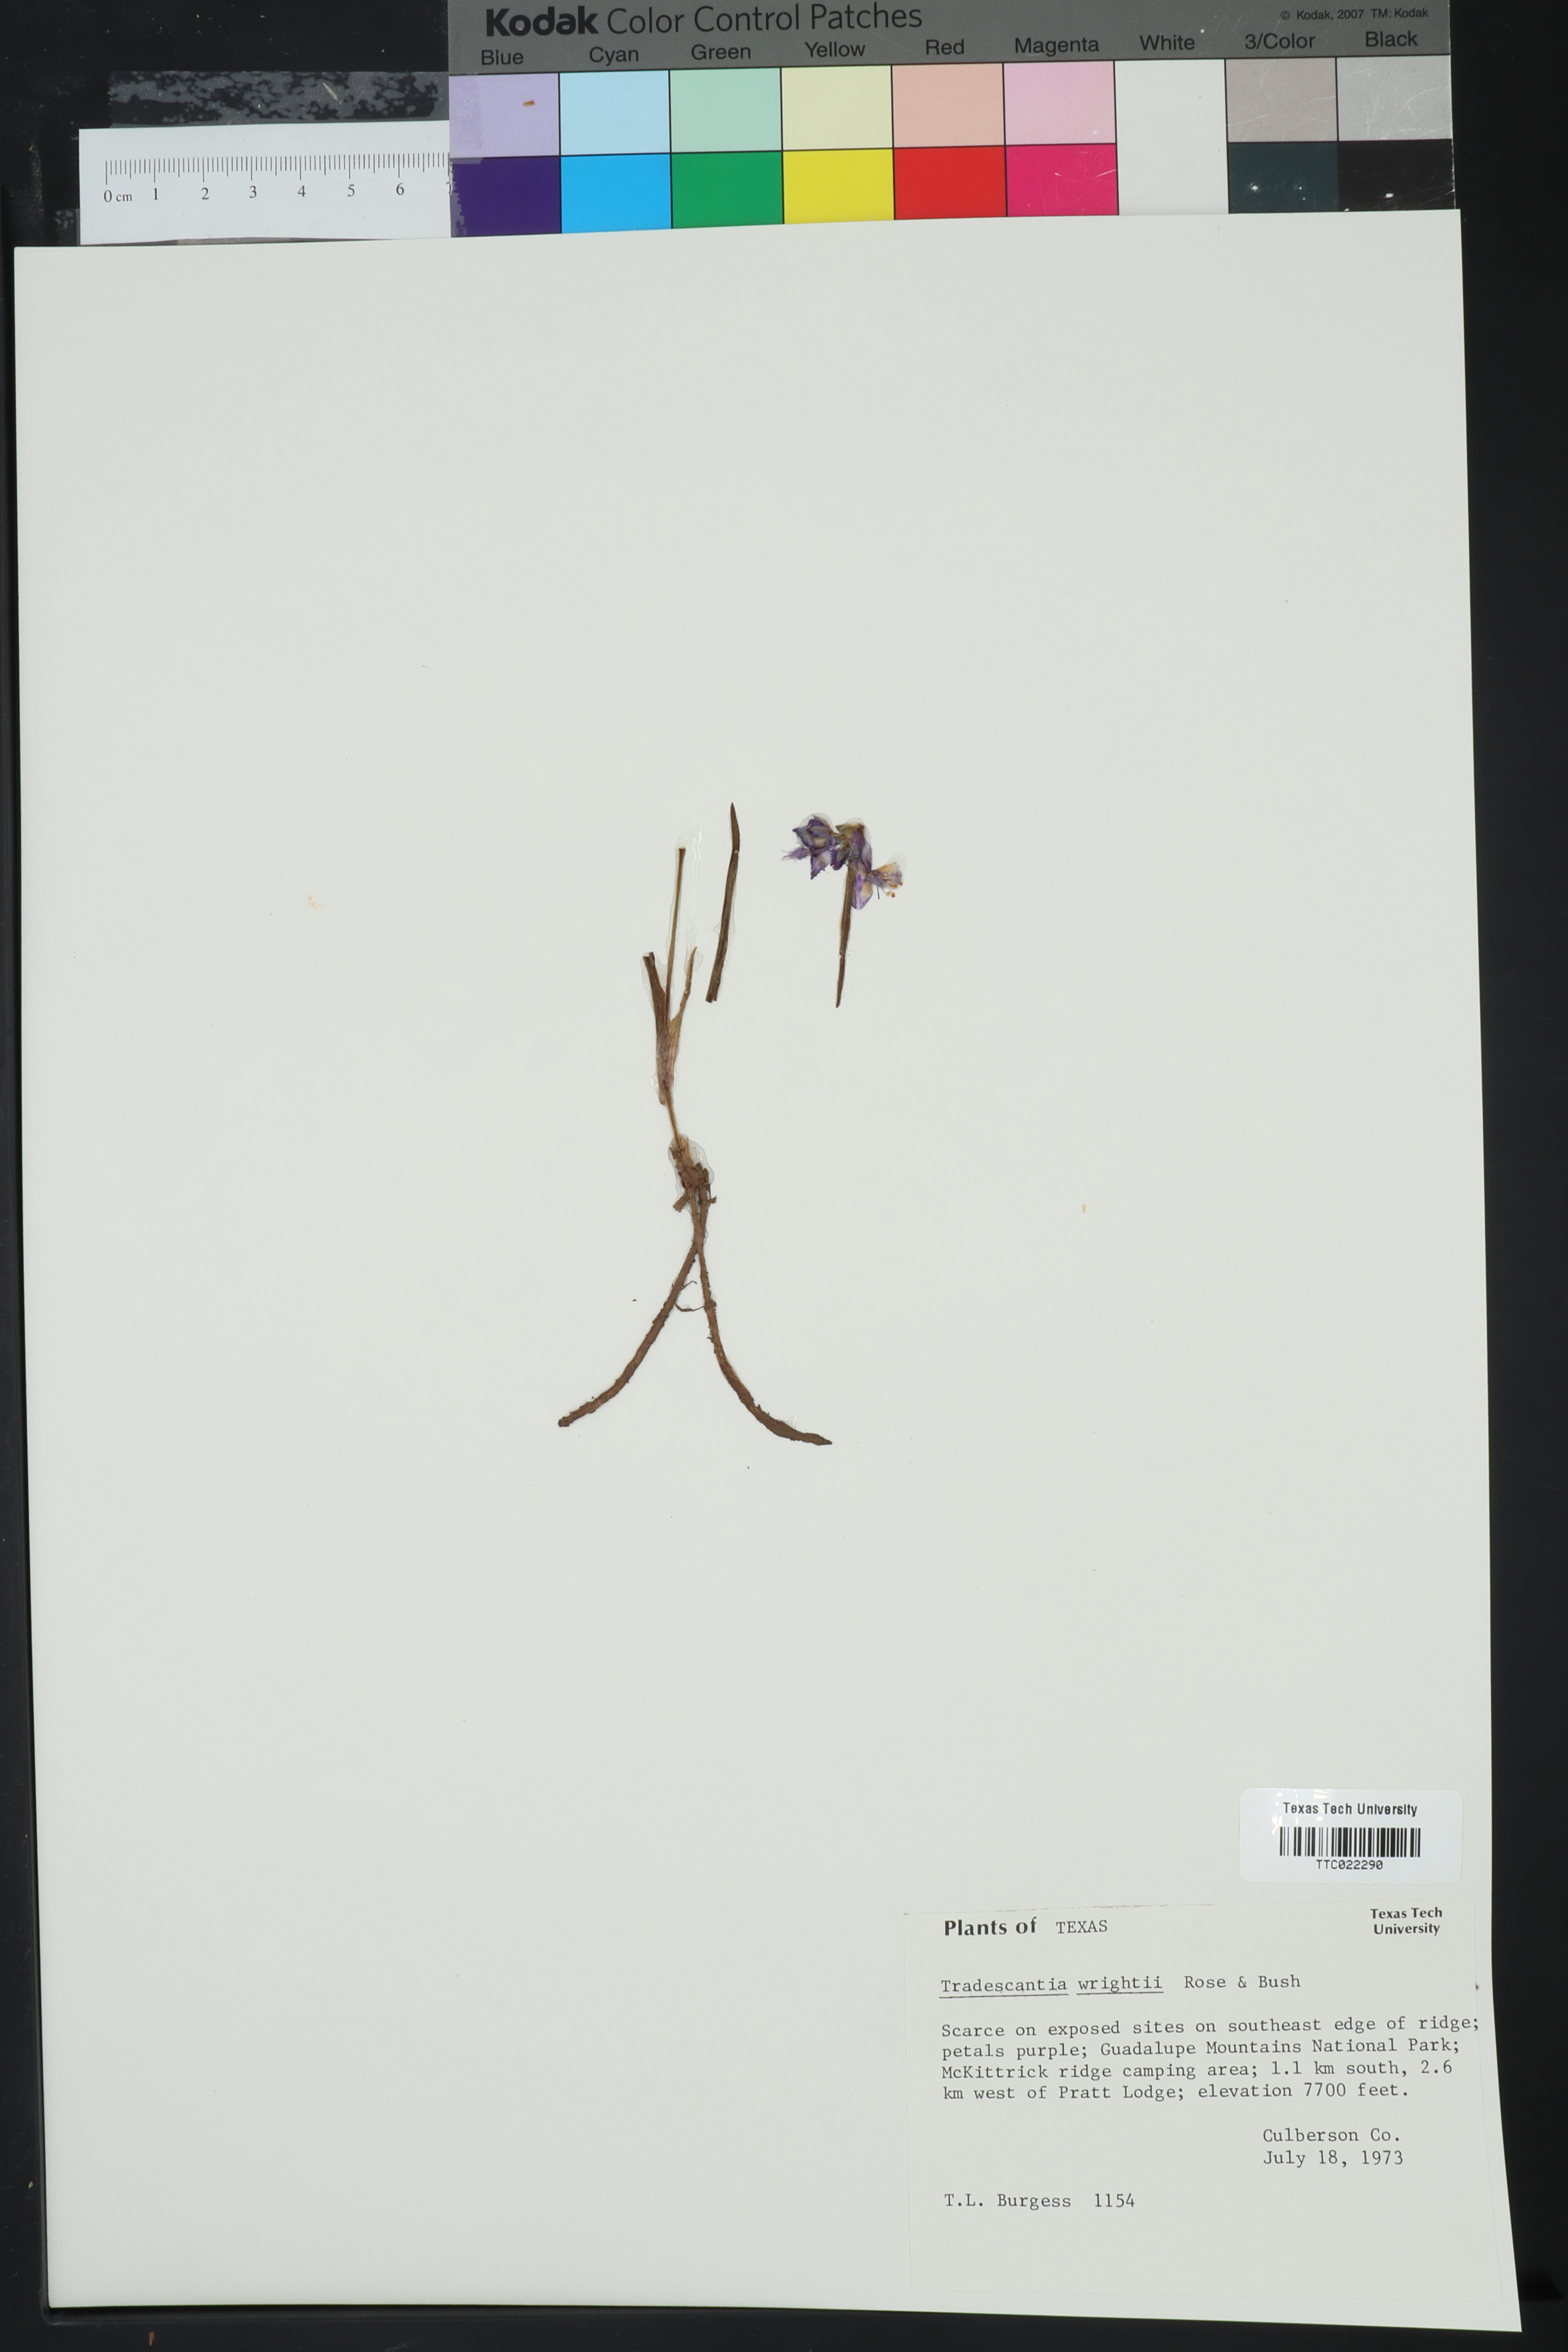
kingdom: Plantae
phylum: Tracheophyta
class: Liliopsida
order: Commelinales
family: Commelinaceae
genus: Tradescantia
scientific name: Tradescantia wrightii
